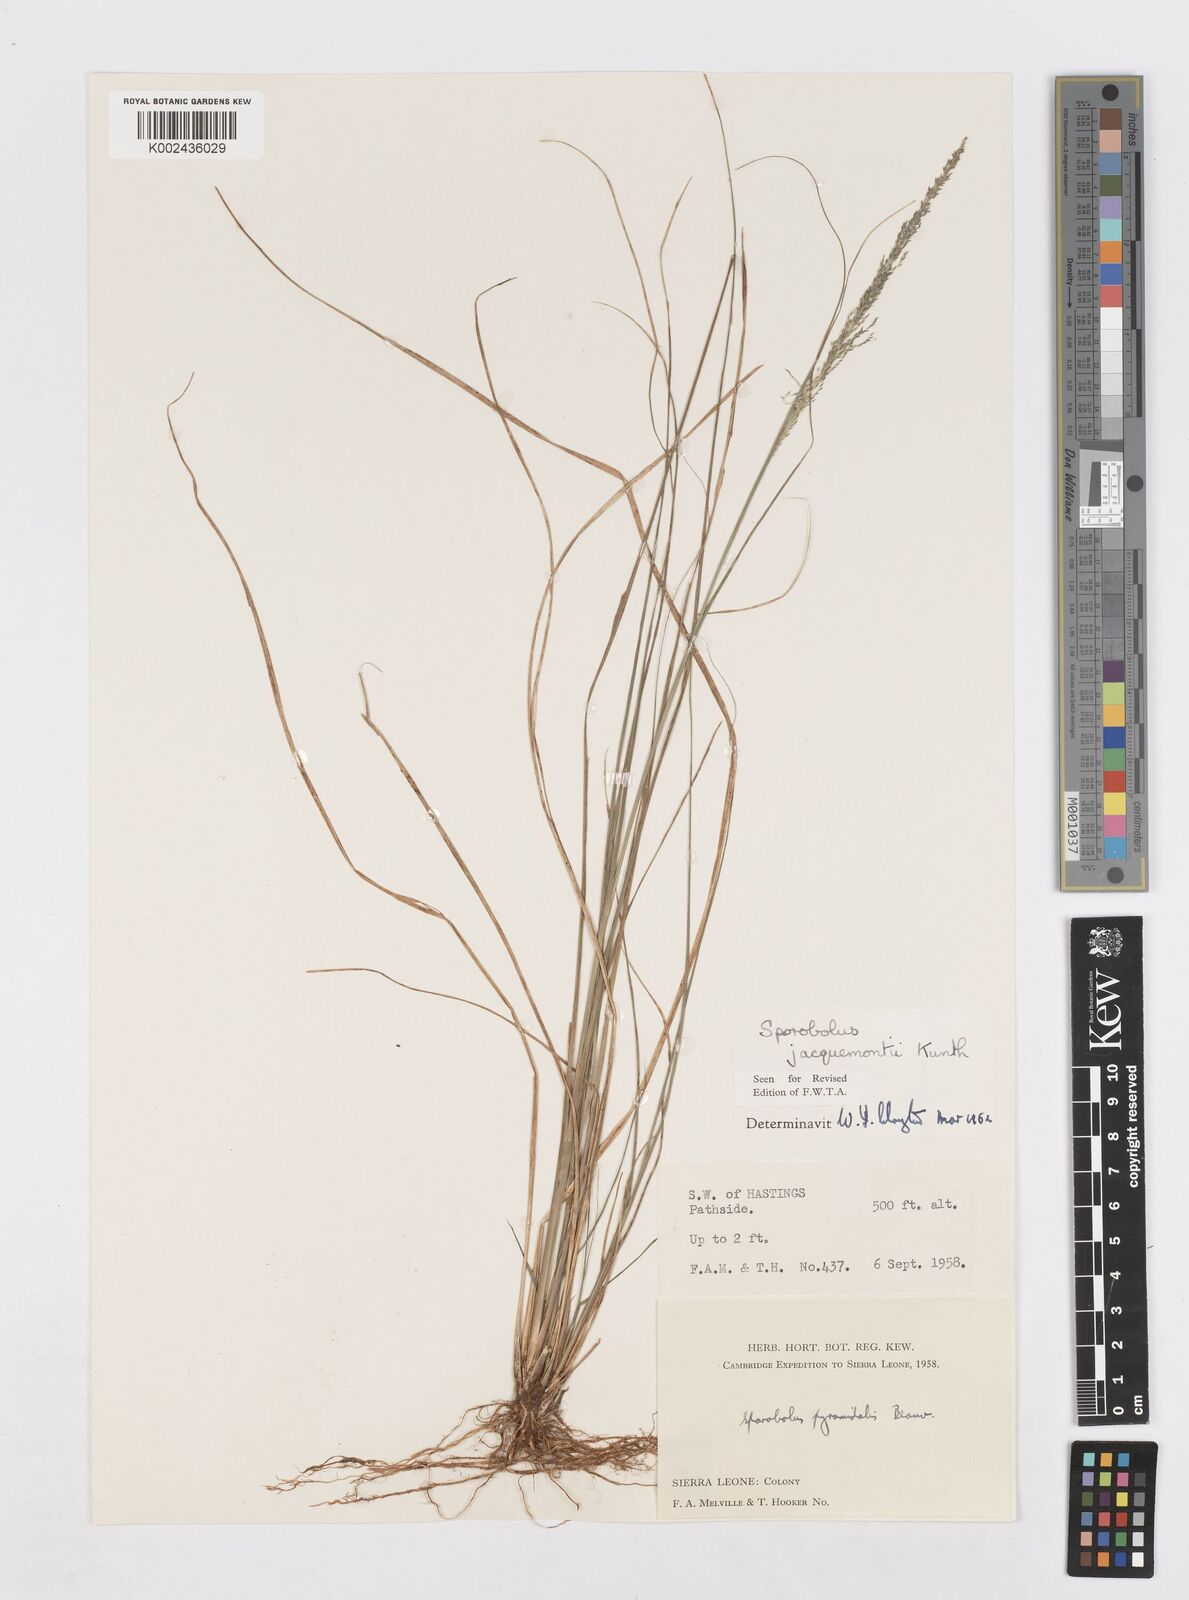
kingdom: Plantae
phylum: Tracheophyta
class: Liliopsida
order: Poales
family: Poaceae
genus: Sporobolus
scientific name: Sporobolus pyramidalis
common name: West indian dropseed
